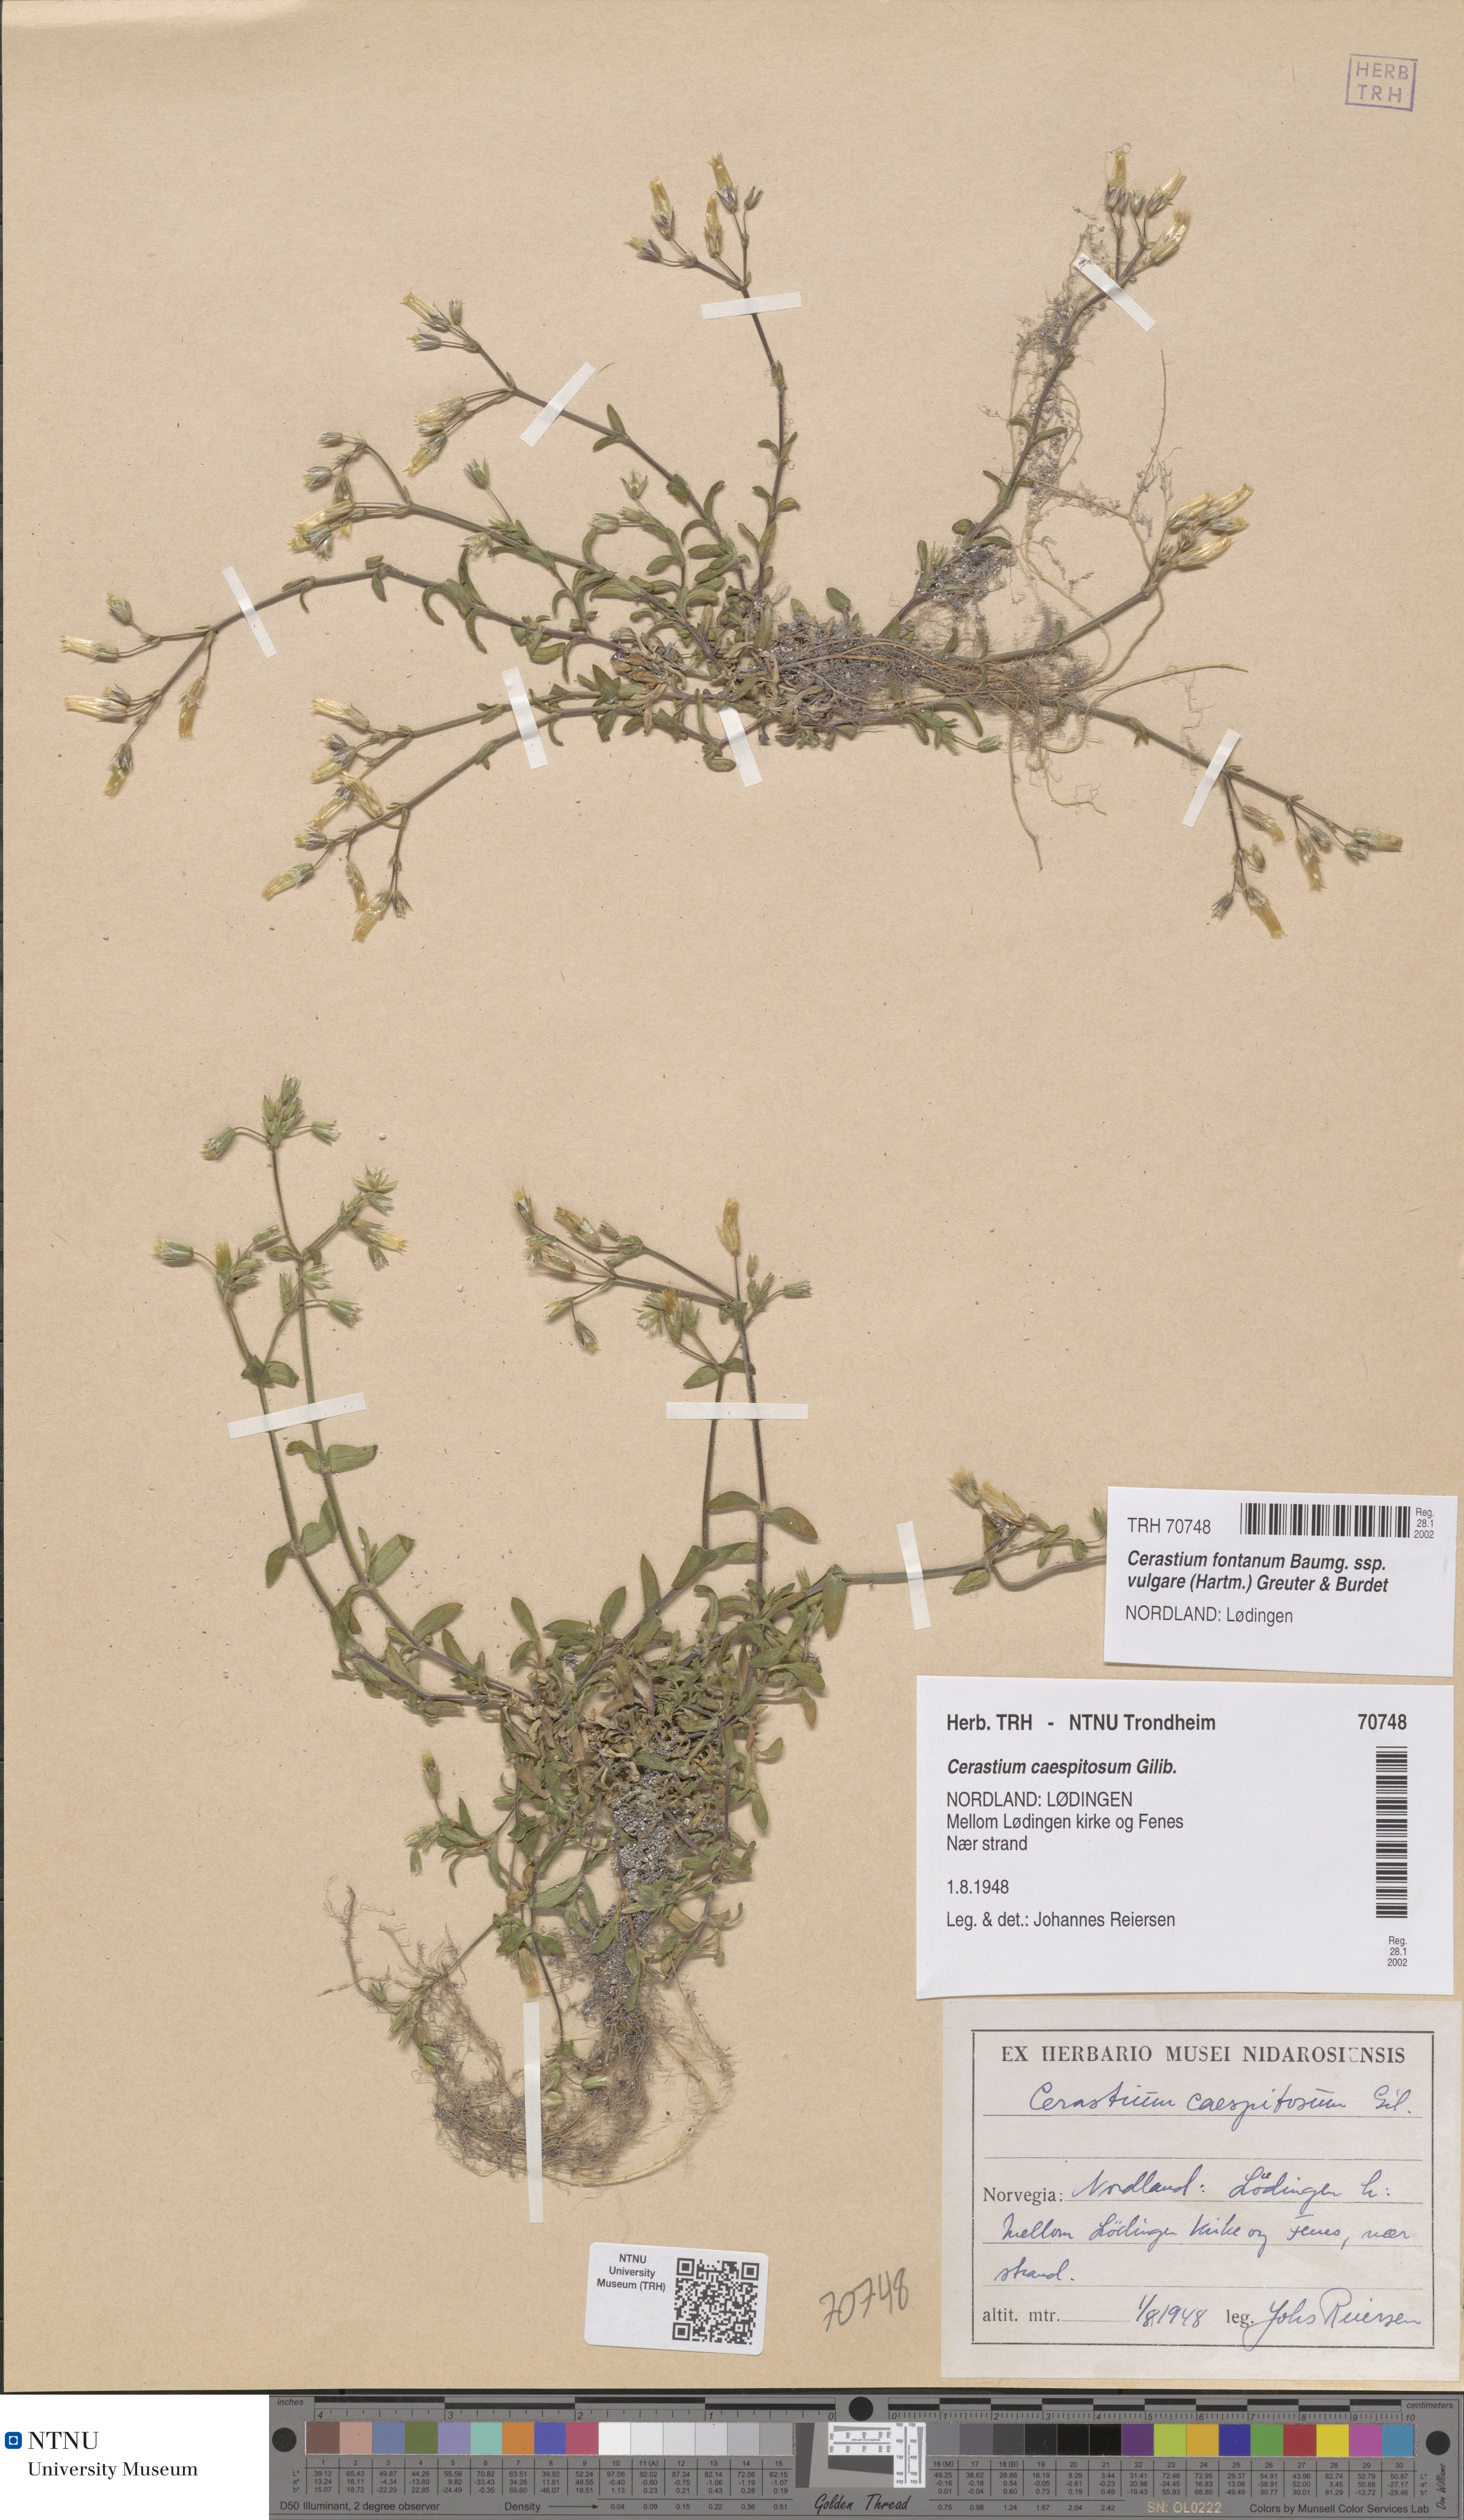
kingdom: Plantae
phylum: Tracheophyta
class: Magnoliopsida
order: Caryophyllales
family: Caryophyllaceae
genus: Cerastium
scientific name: Cerastium holosteoides
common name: Big chickweed
